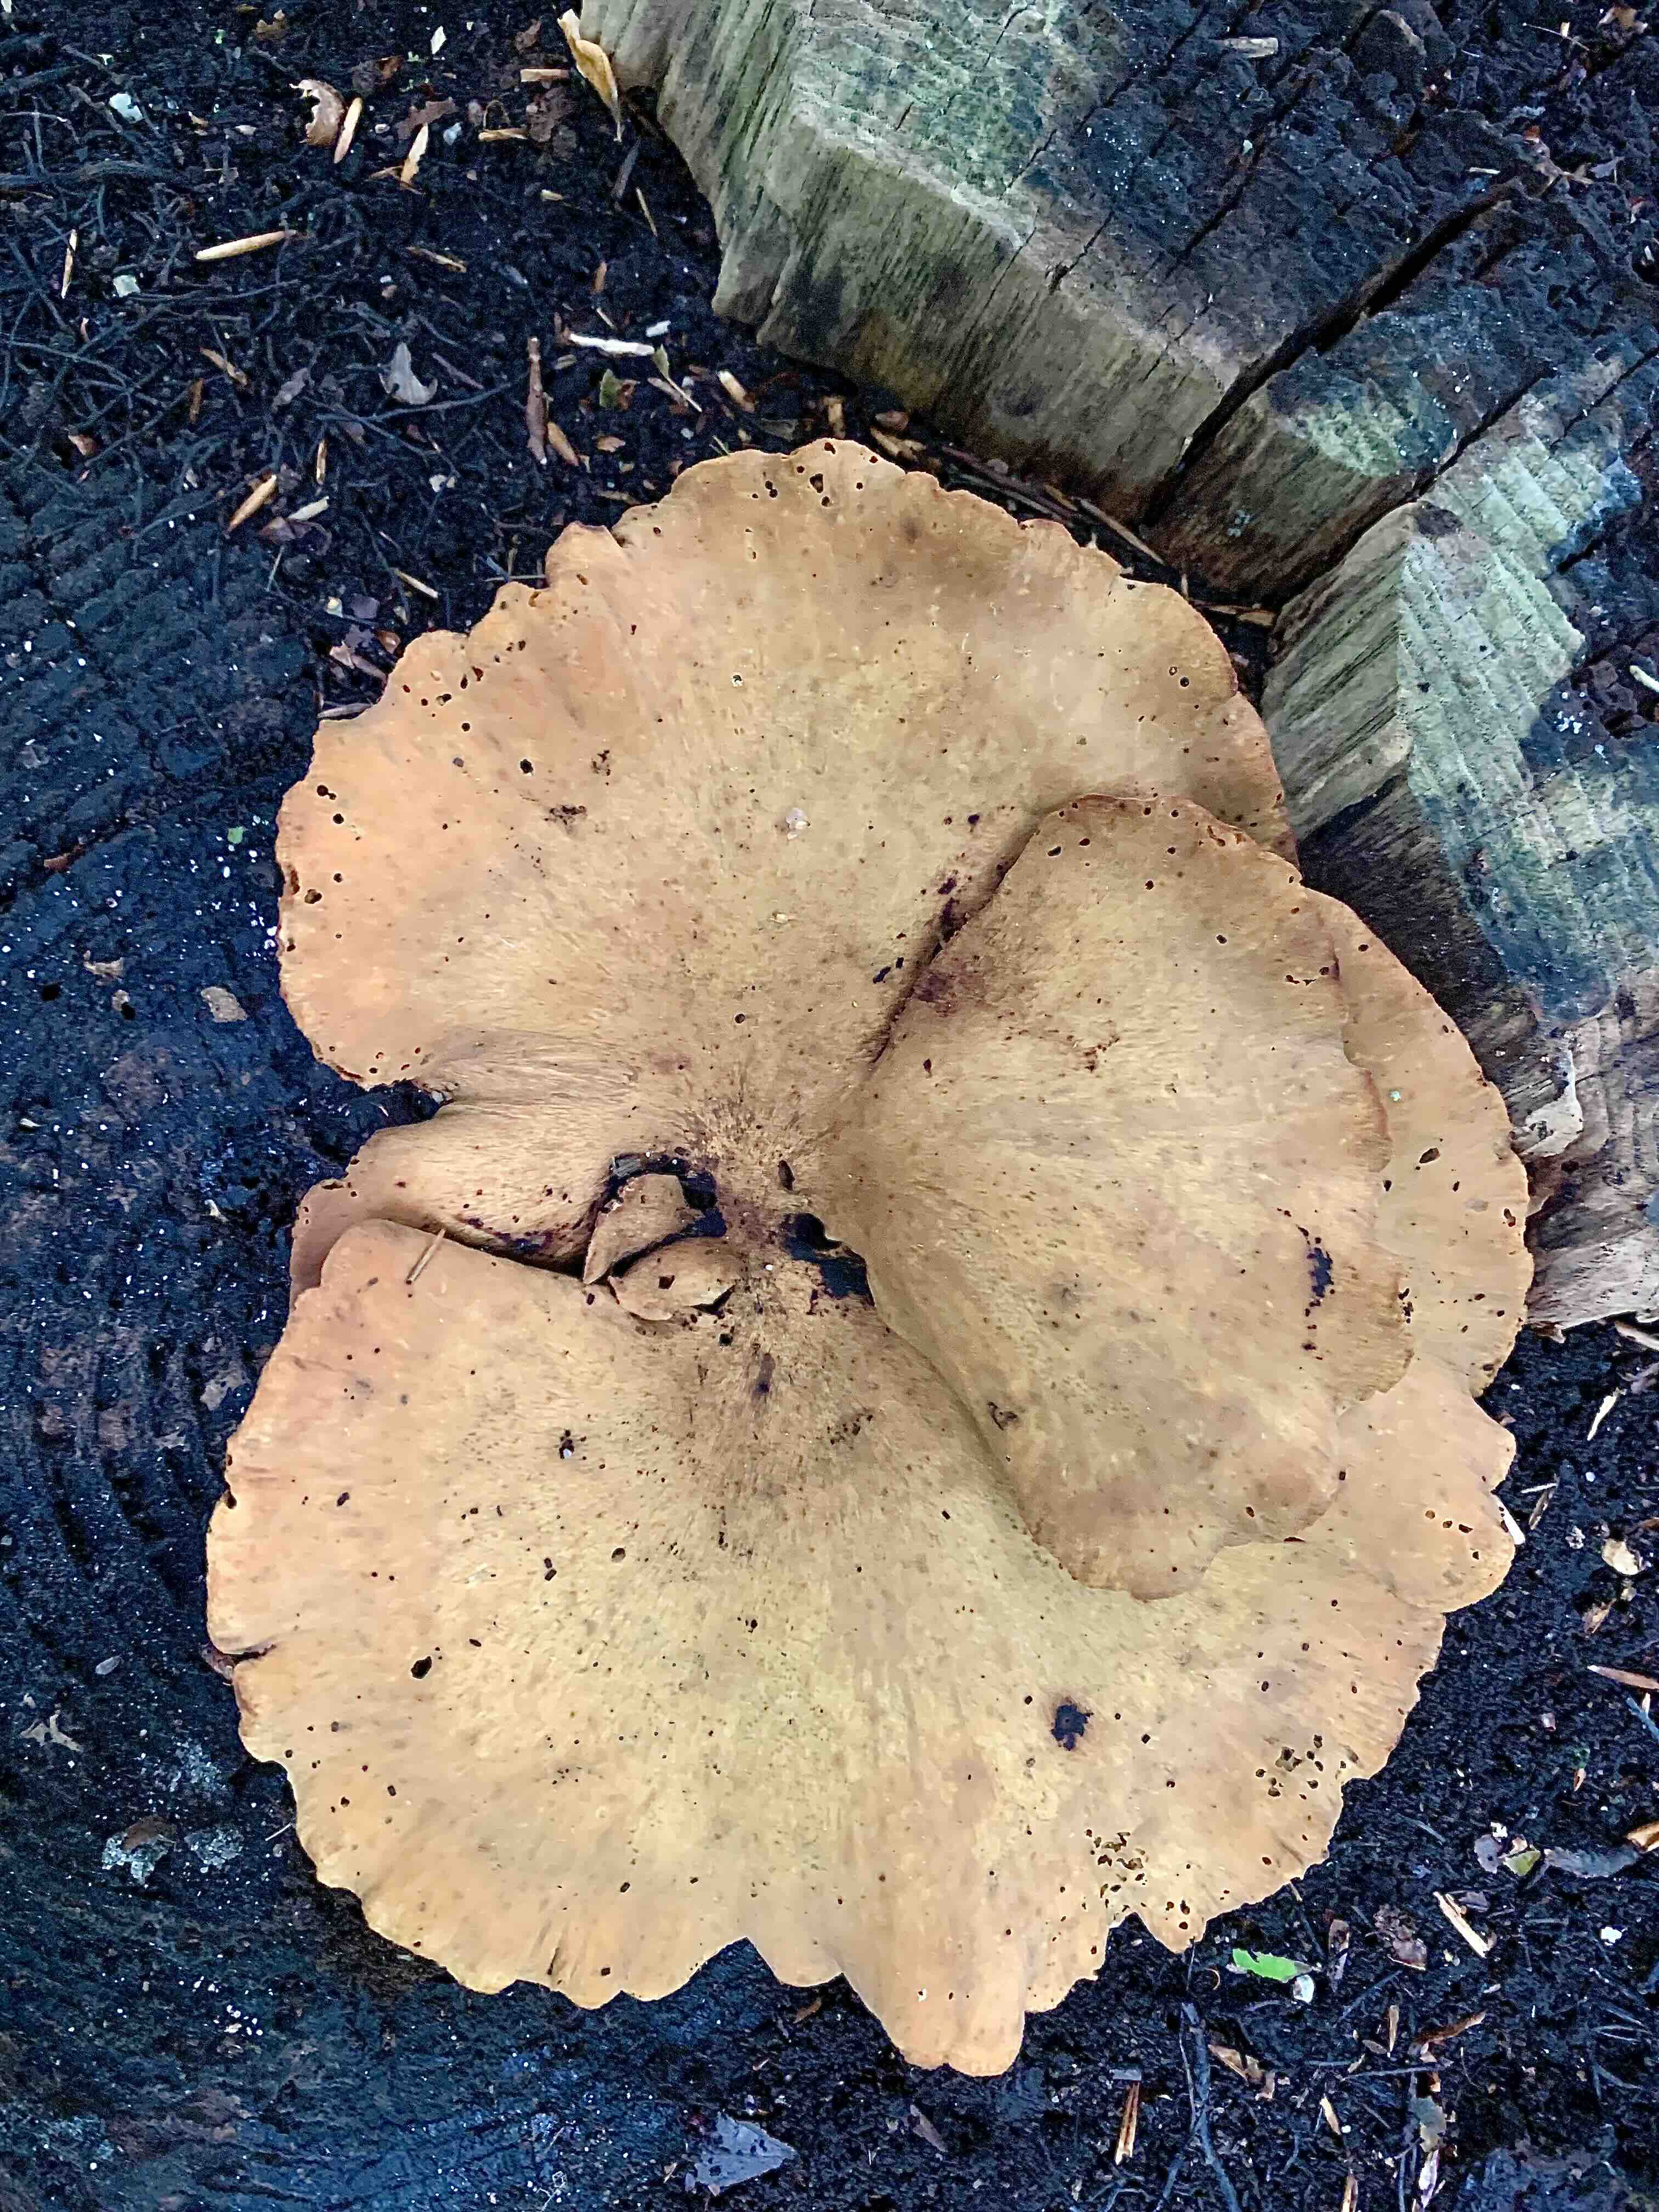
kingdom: Fungi
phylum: Basidiomycota
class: Agaricomycetes
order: Polyporales
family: Polyporaceae
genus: Cerioporus
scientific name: Cerioporus varius
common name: foranderlig stilkporesvamp
